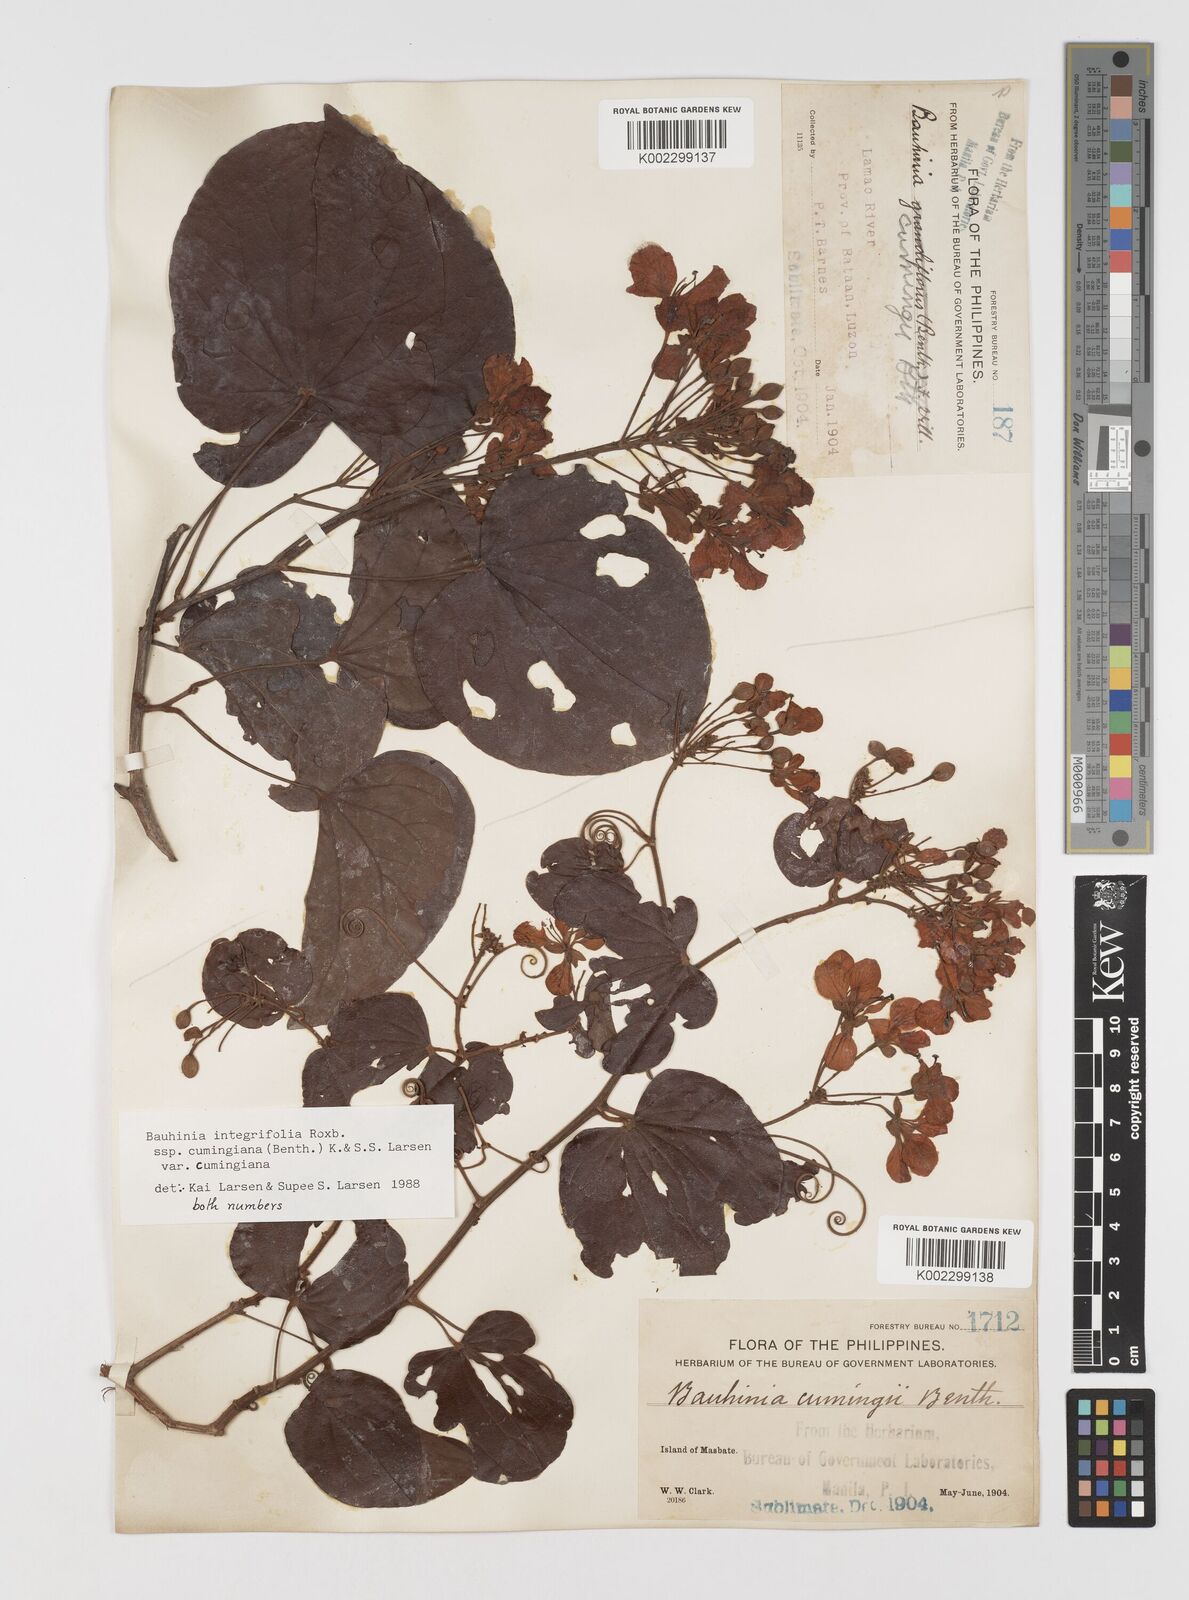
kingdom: Plantae
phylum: Tracheophyta
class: Magnoliopsida
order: Fabales
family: Fabaceae
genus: Phanera
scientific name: Phanera integrifolia
